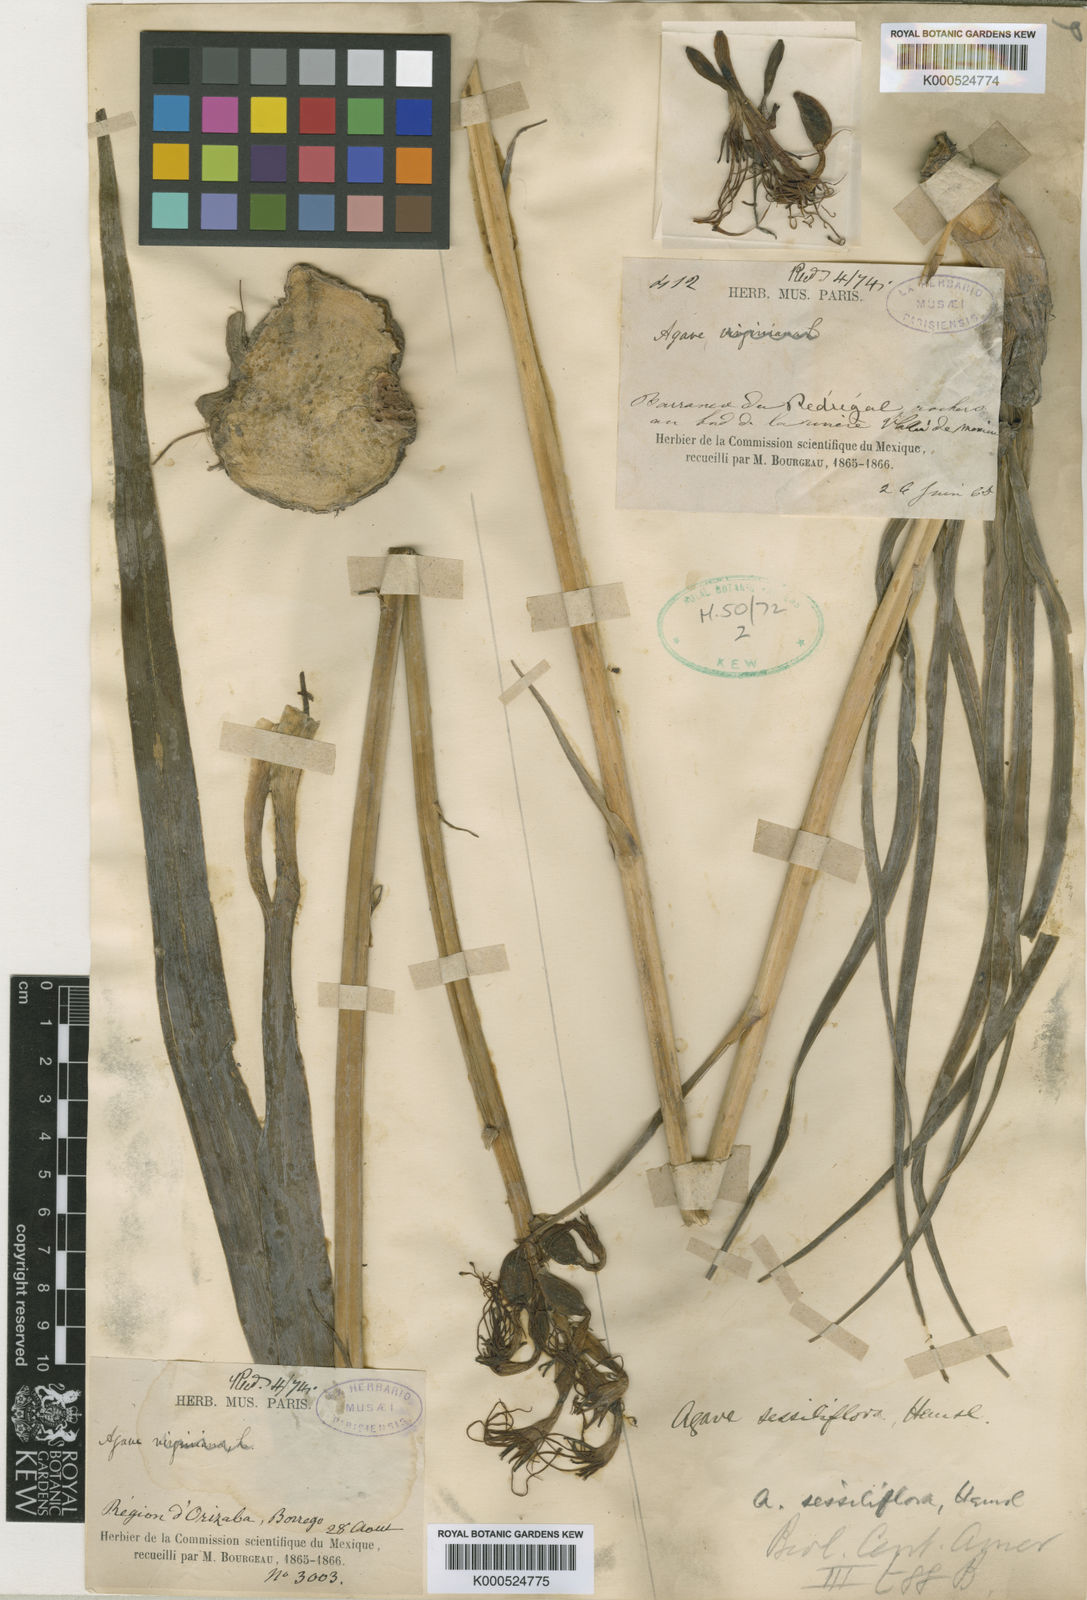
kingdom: Plantae
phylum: Tracheophyta
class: Liliopsida
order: Asparagales
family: Asparagaceae
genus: Agave
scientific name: Agave scabra
